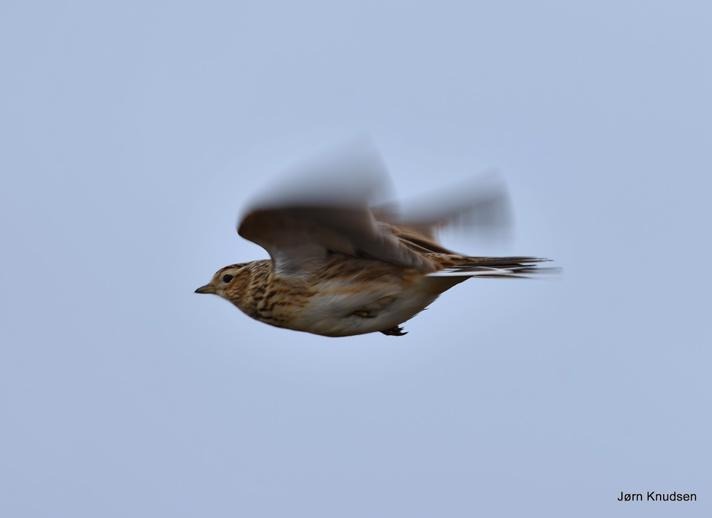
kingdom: Animalia
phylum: Chordata
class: Aves
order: Passeriformes
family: Alaudidae
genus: Alauda
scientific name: Alauda arvensis
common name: Sanglærke
